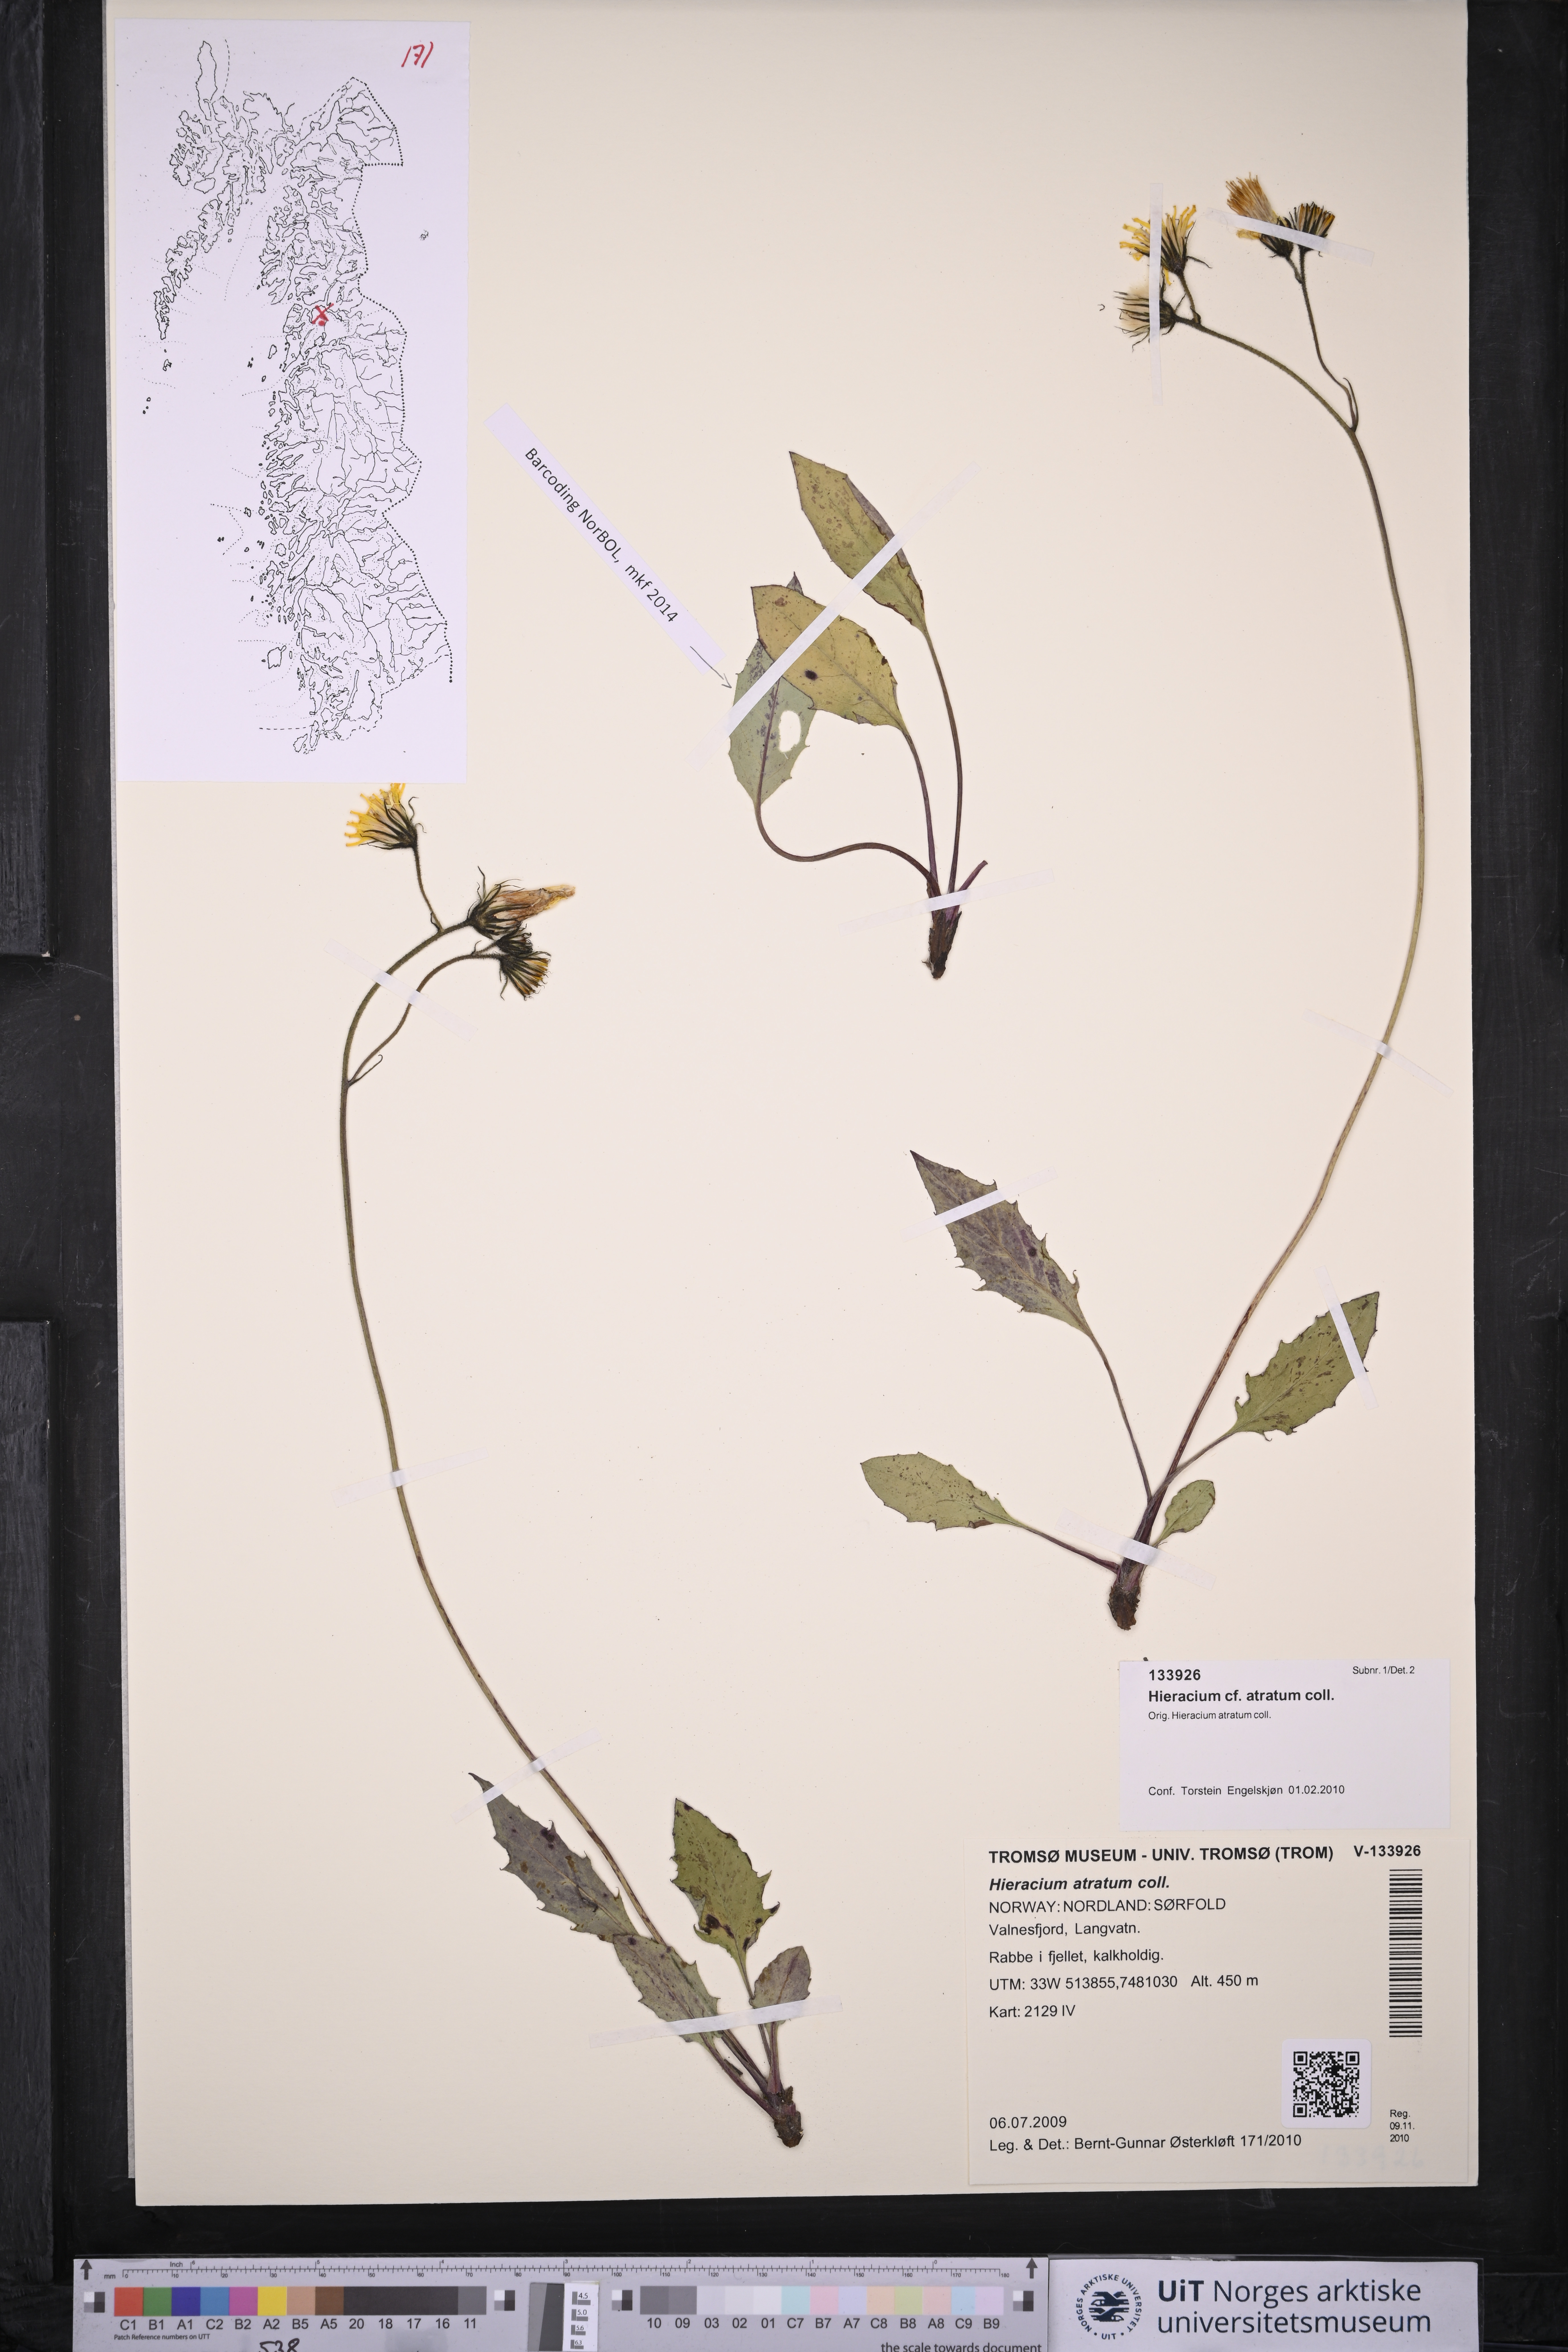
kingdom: Plantae
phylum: Tracheophyta
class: Magnoliopsida
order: Asterales
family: Asteraceae
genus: Hieracium
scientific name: Hieracium atratum
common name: Polar hawkweed
